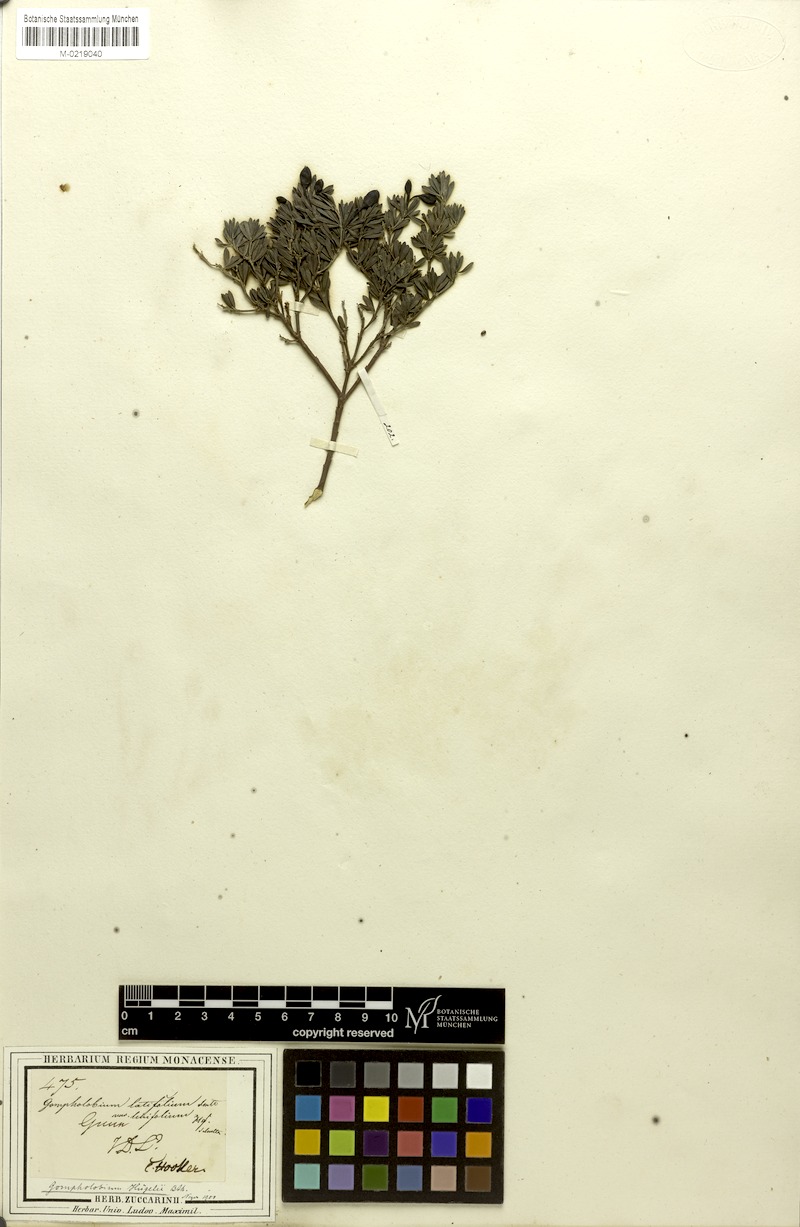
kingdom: Plantae
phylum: Tracheophyta
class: Magnoliopsida
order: Fabales
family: Fabaceae
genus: Gompholobium
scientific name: Gompholobium huegelii
